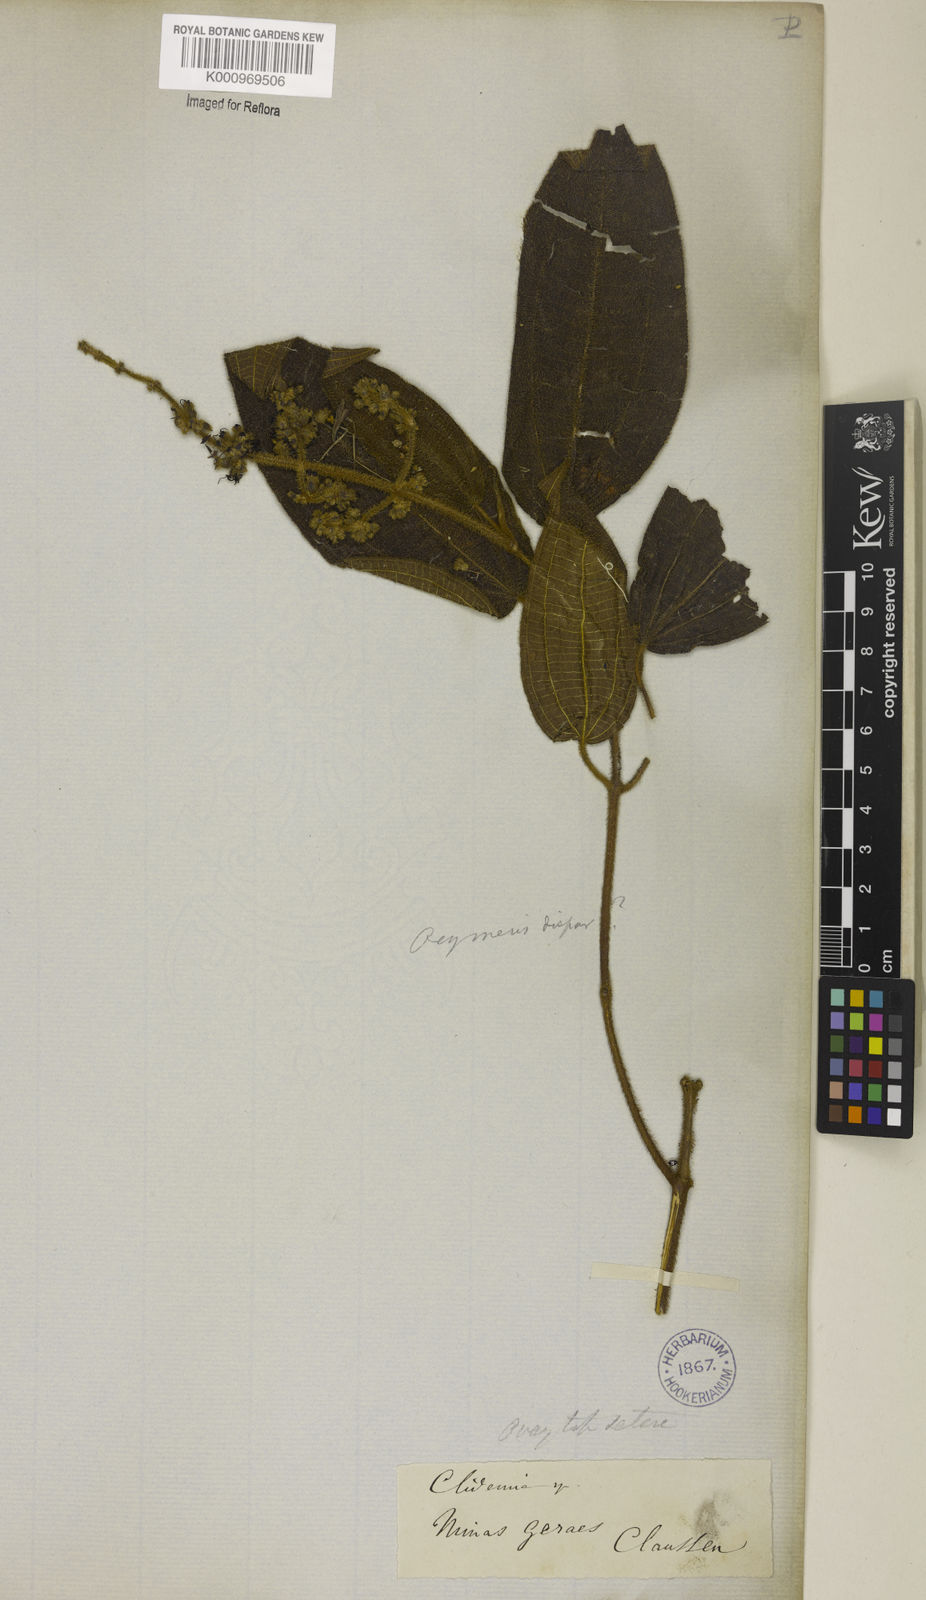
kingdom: Plantae
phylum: Tracheophyta
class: Magnoliopsida
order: Myrtales
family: Melastomataceae
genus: Miconia
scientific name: Miconia leadispar
